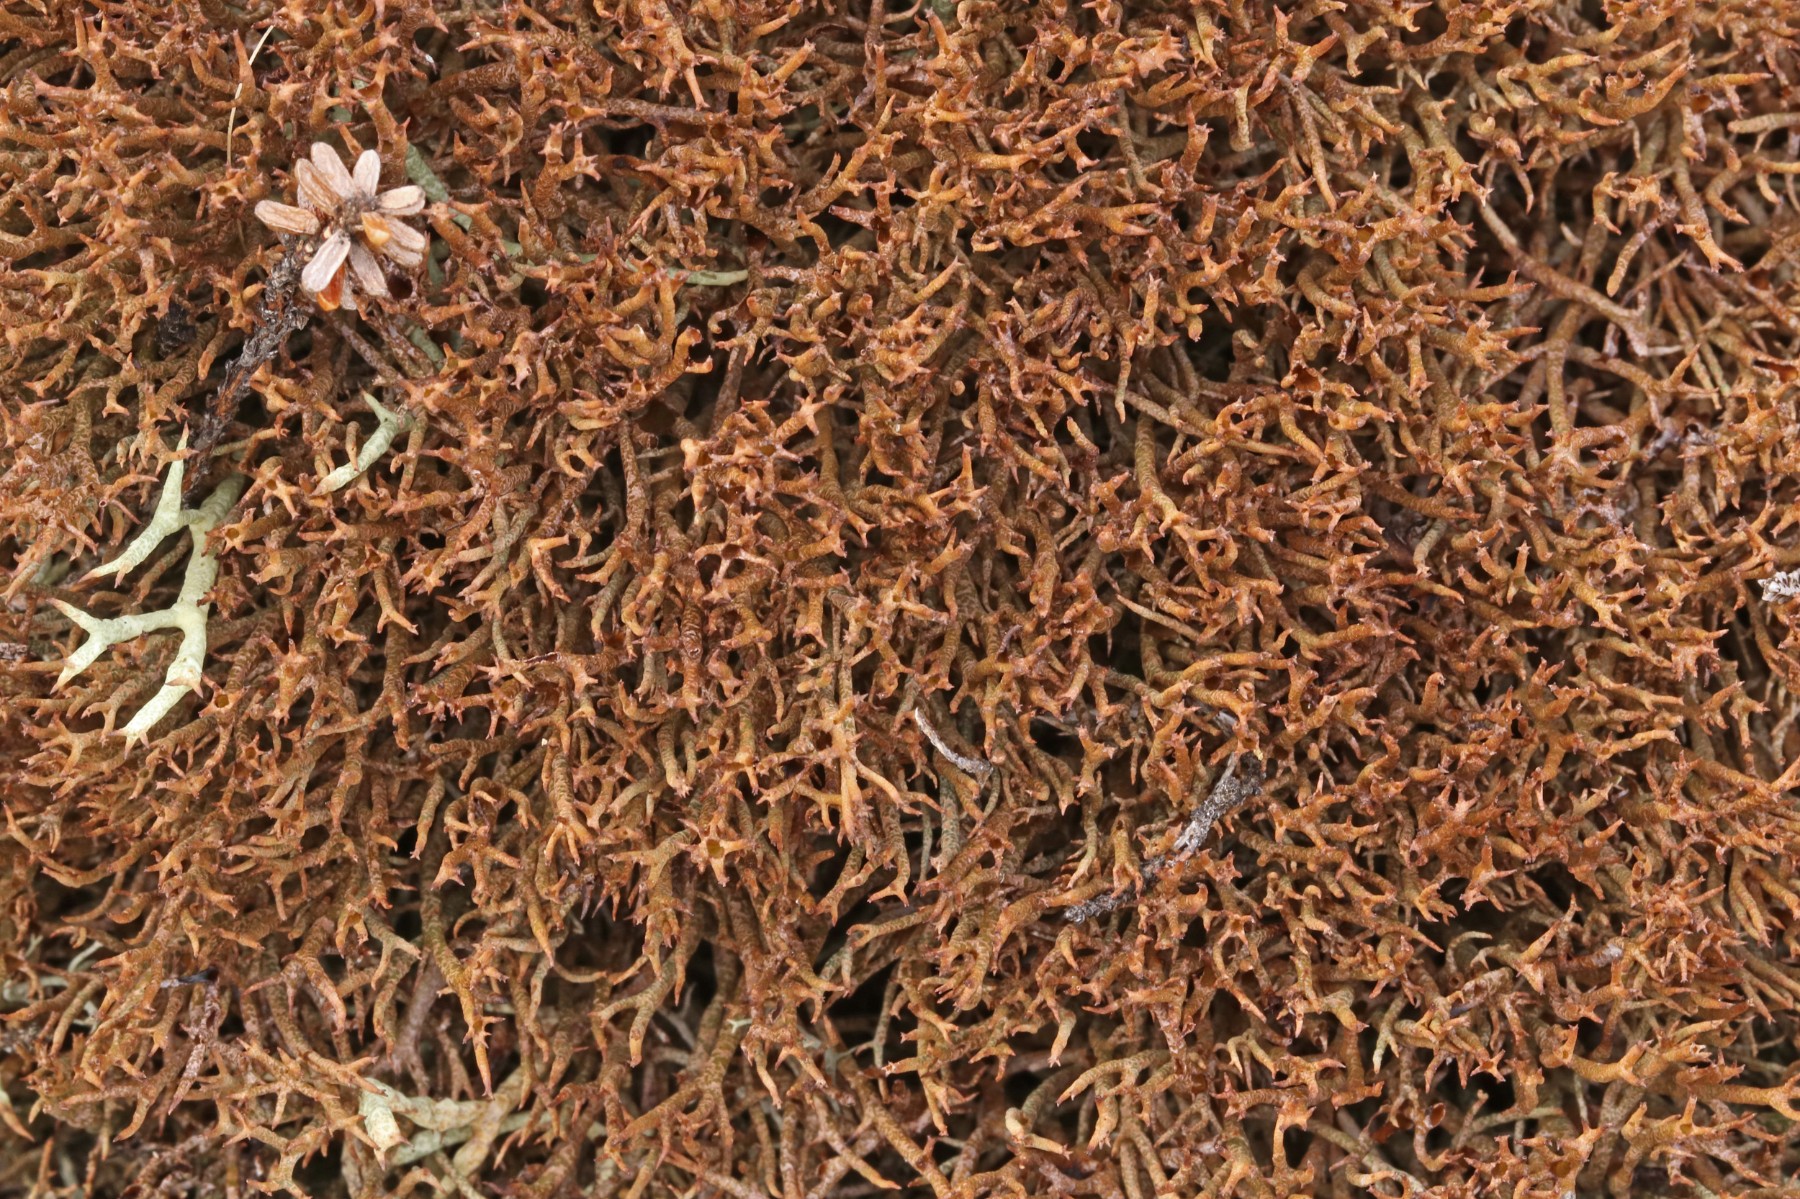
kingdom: Fungi
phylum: Ascomycota
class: Lecanoromycetes
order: Lecanorales
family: Cladoniaceae
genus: Cladonia
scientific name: Cladonia crispata
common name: takket bægerlav
